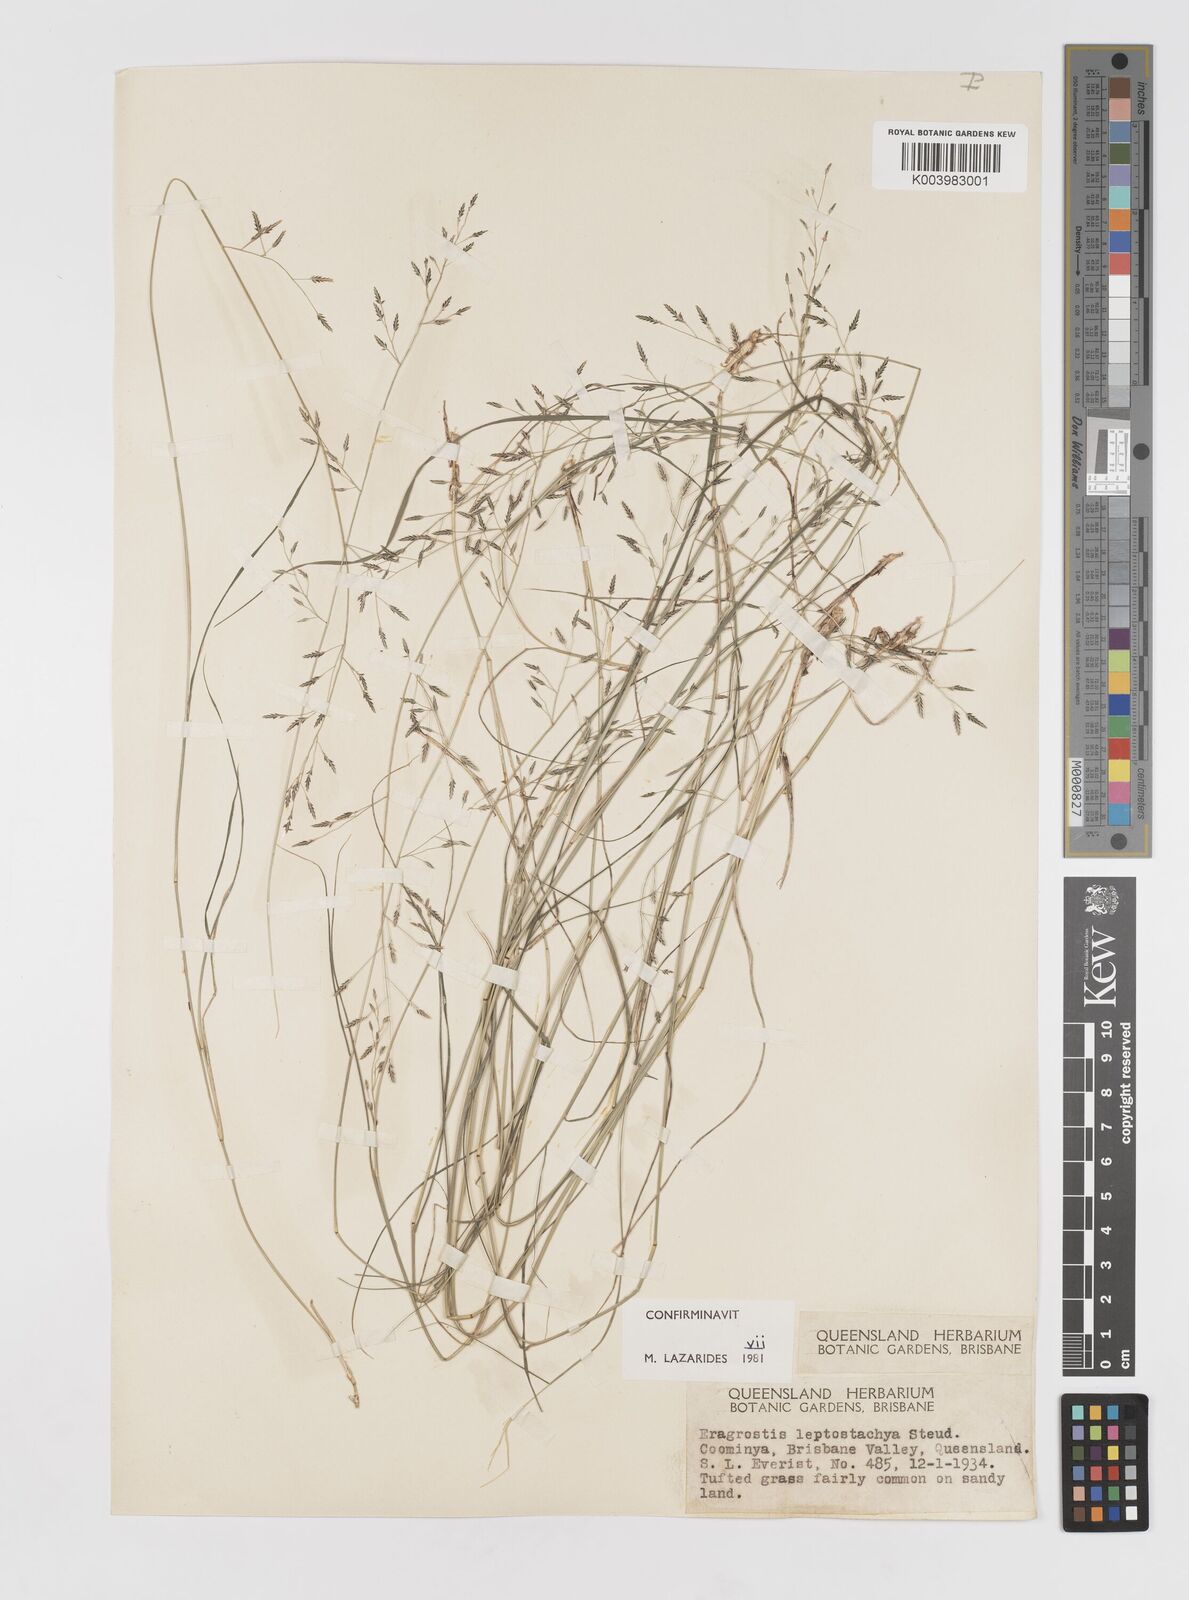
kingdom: Plantae
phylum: Tracheophyta
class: Liliopsida
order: Poales
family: Poaceae
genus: Eragrostis
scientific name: Eragrostis leptostachya
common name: Australian lovegrass
